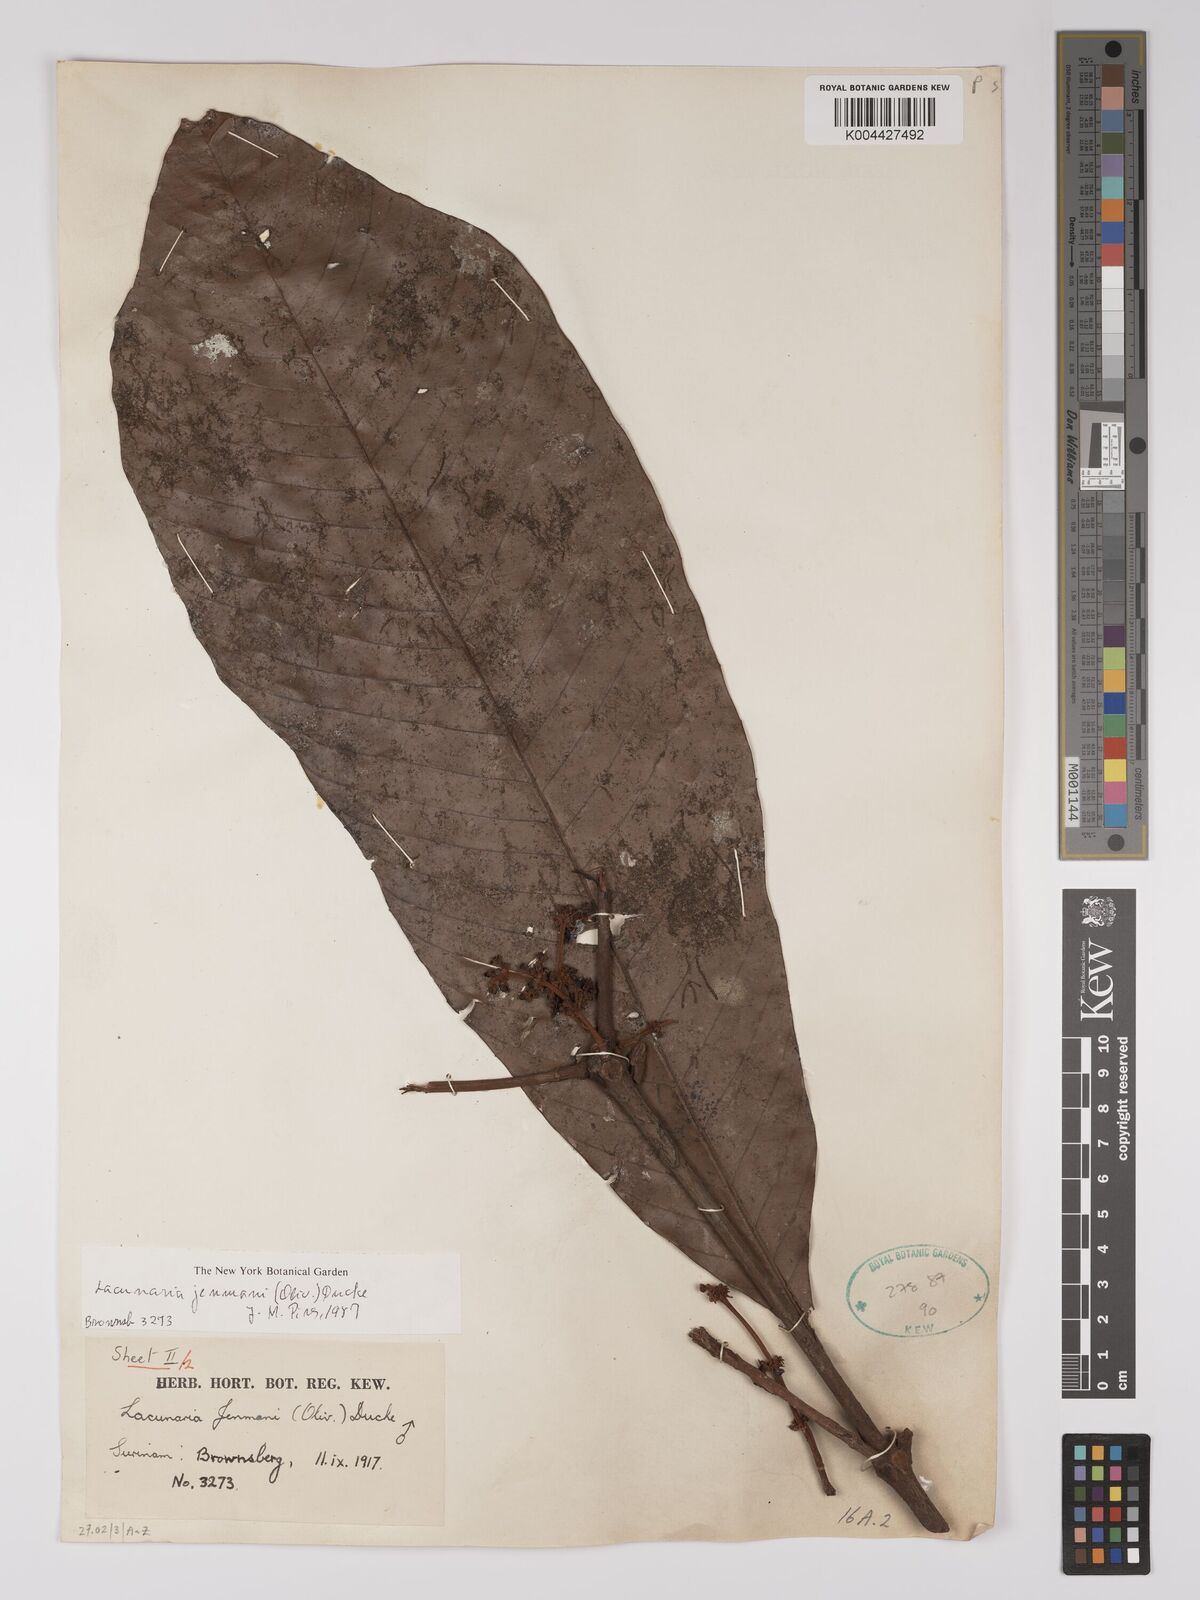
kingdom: Plantae
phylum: Tracheophyta
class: Magnoliopsida
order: Malpighiales
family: Quiinaceae
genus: Lacunaria
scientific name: Lacunaria jenmanii
